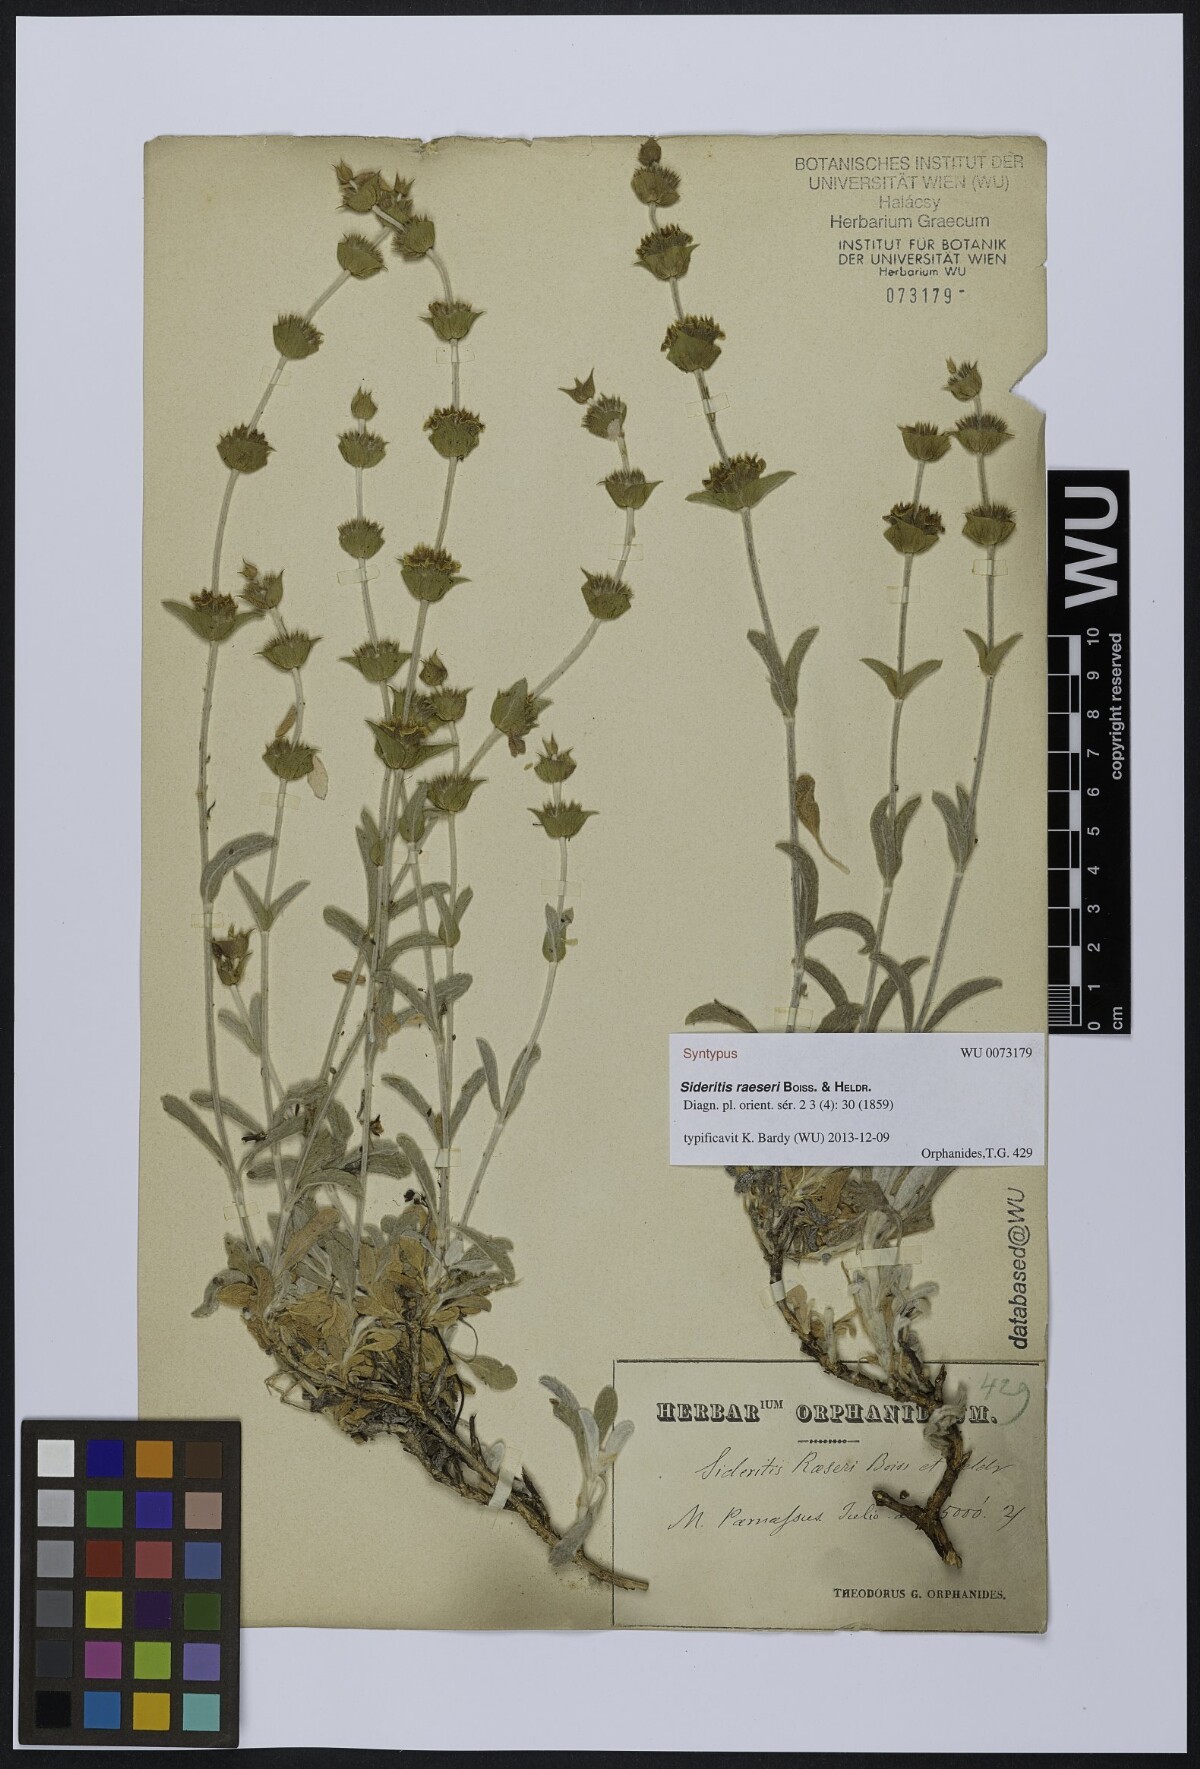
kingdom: Plantae
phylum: Tracheophyta
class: Magnoliopsida
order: Lamiales
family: Lamiaceae
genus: Sideritis
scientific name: Sideritis raeseri
